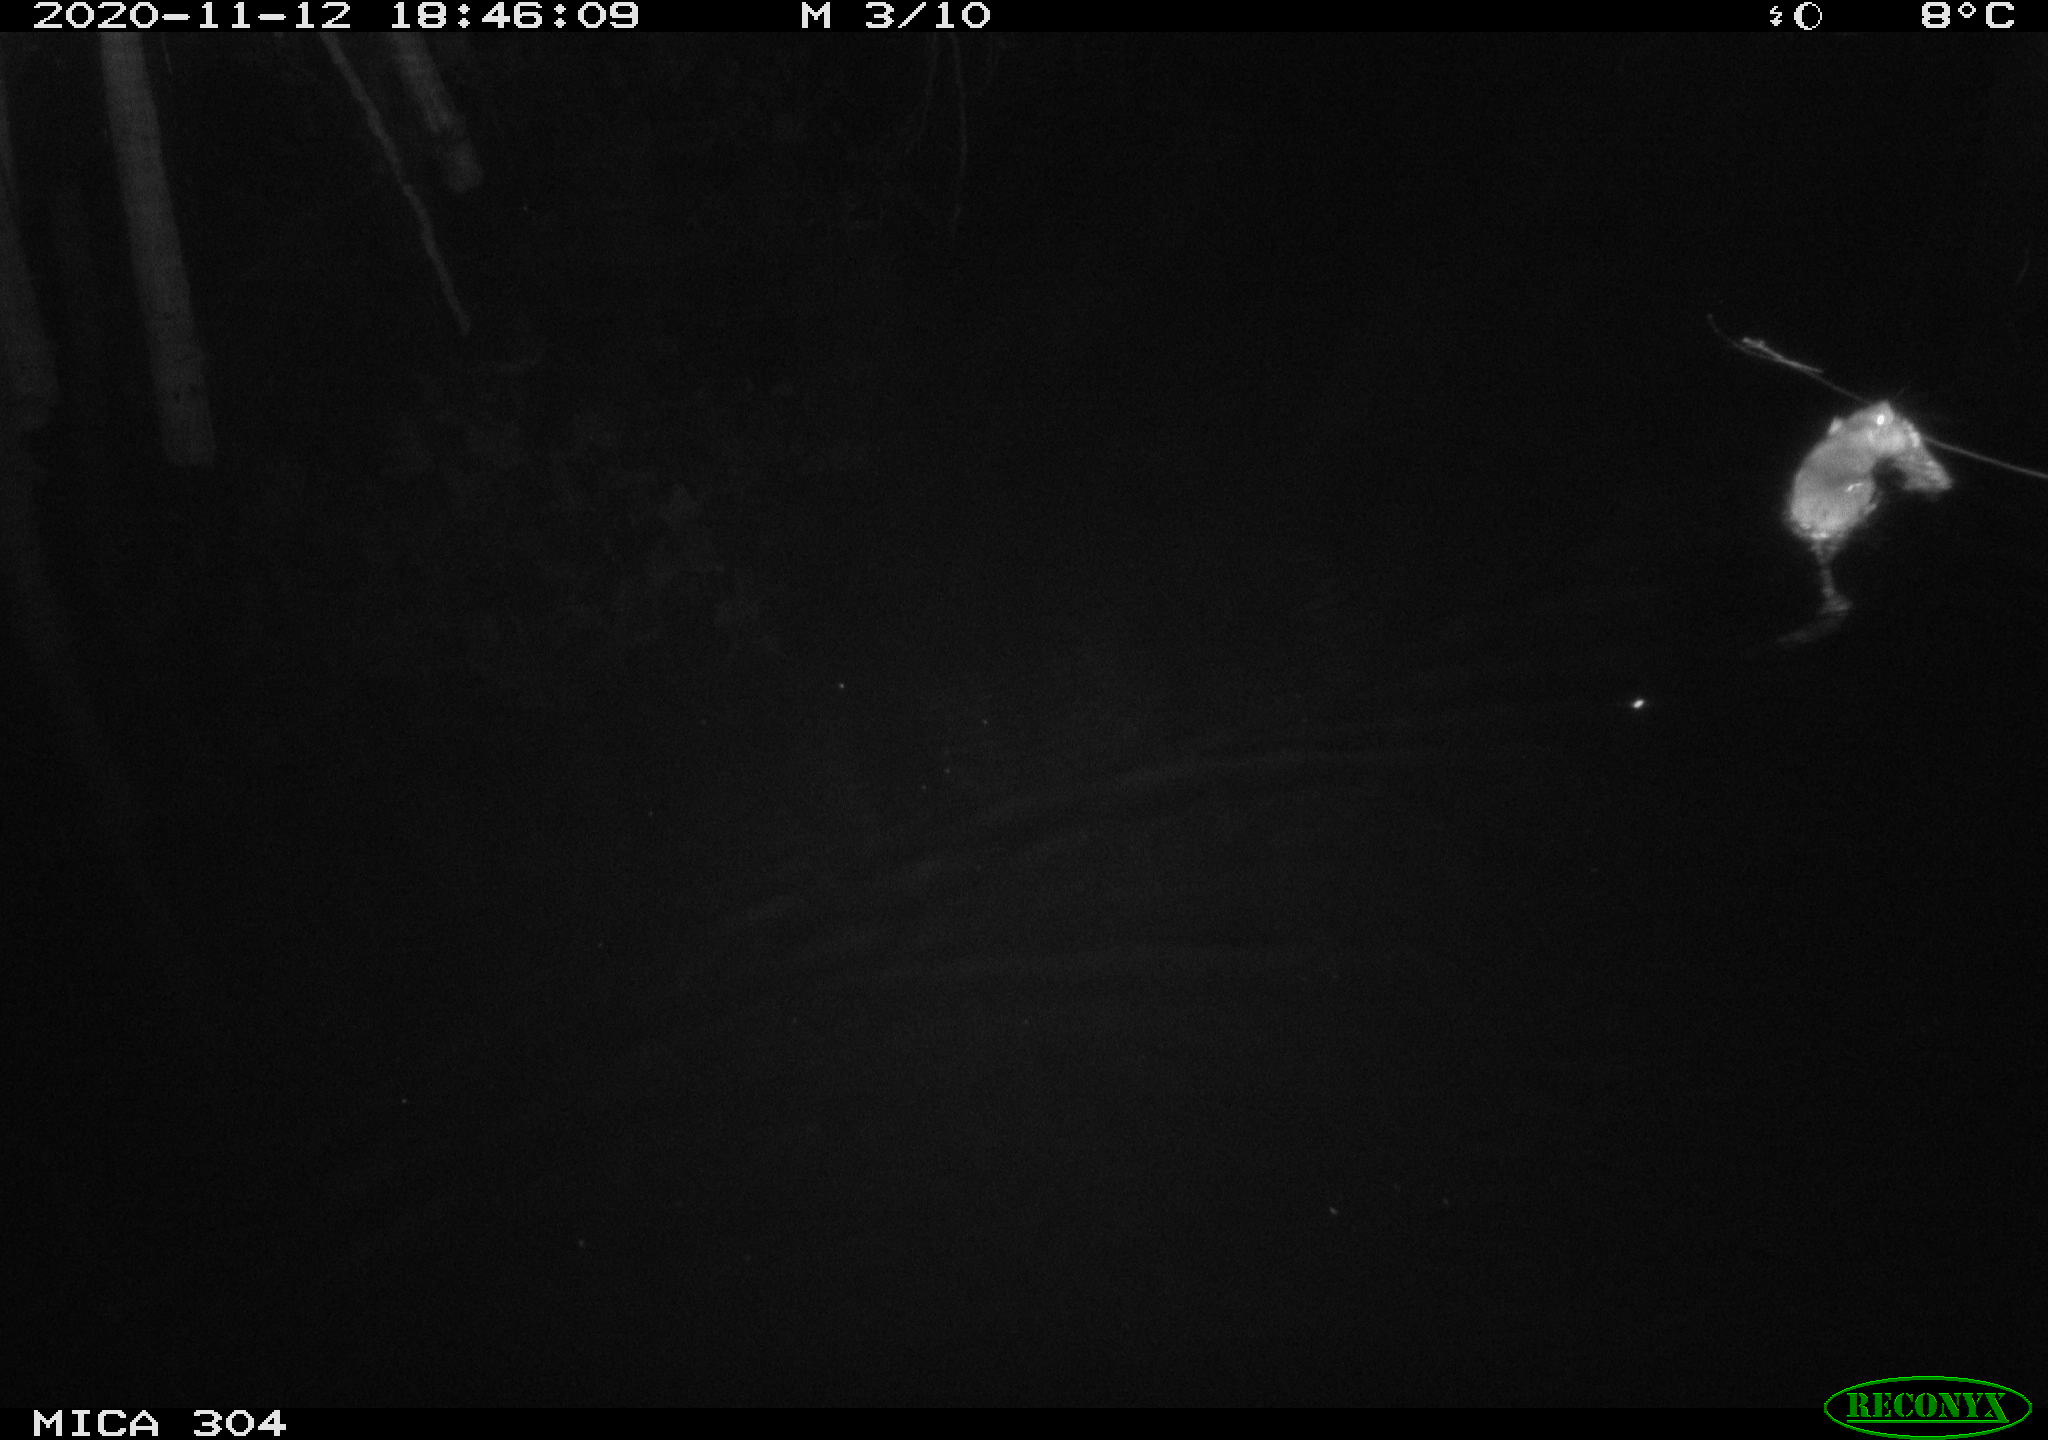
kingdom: Animalia
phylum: Chordata
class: Mammalia
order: Rodentia
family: Muridae
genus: Rattus
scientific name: Rattus norvegicus
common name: Brown rat
